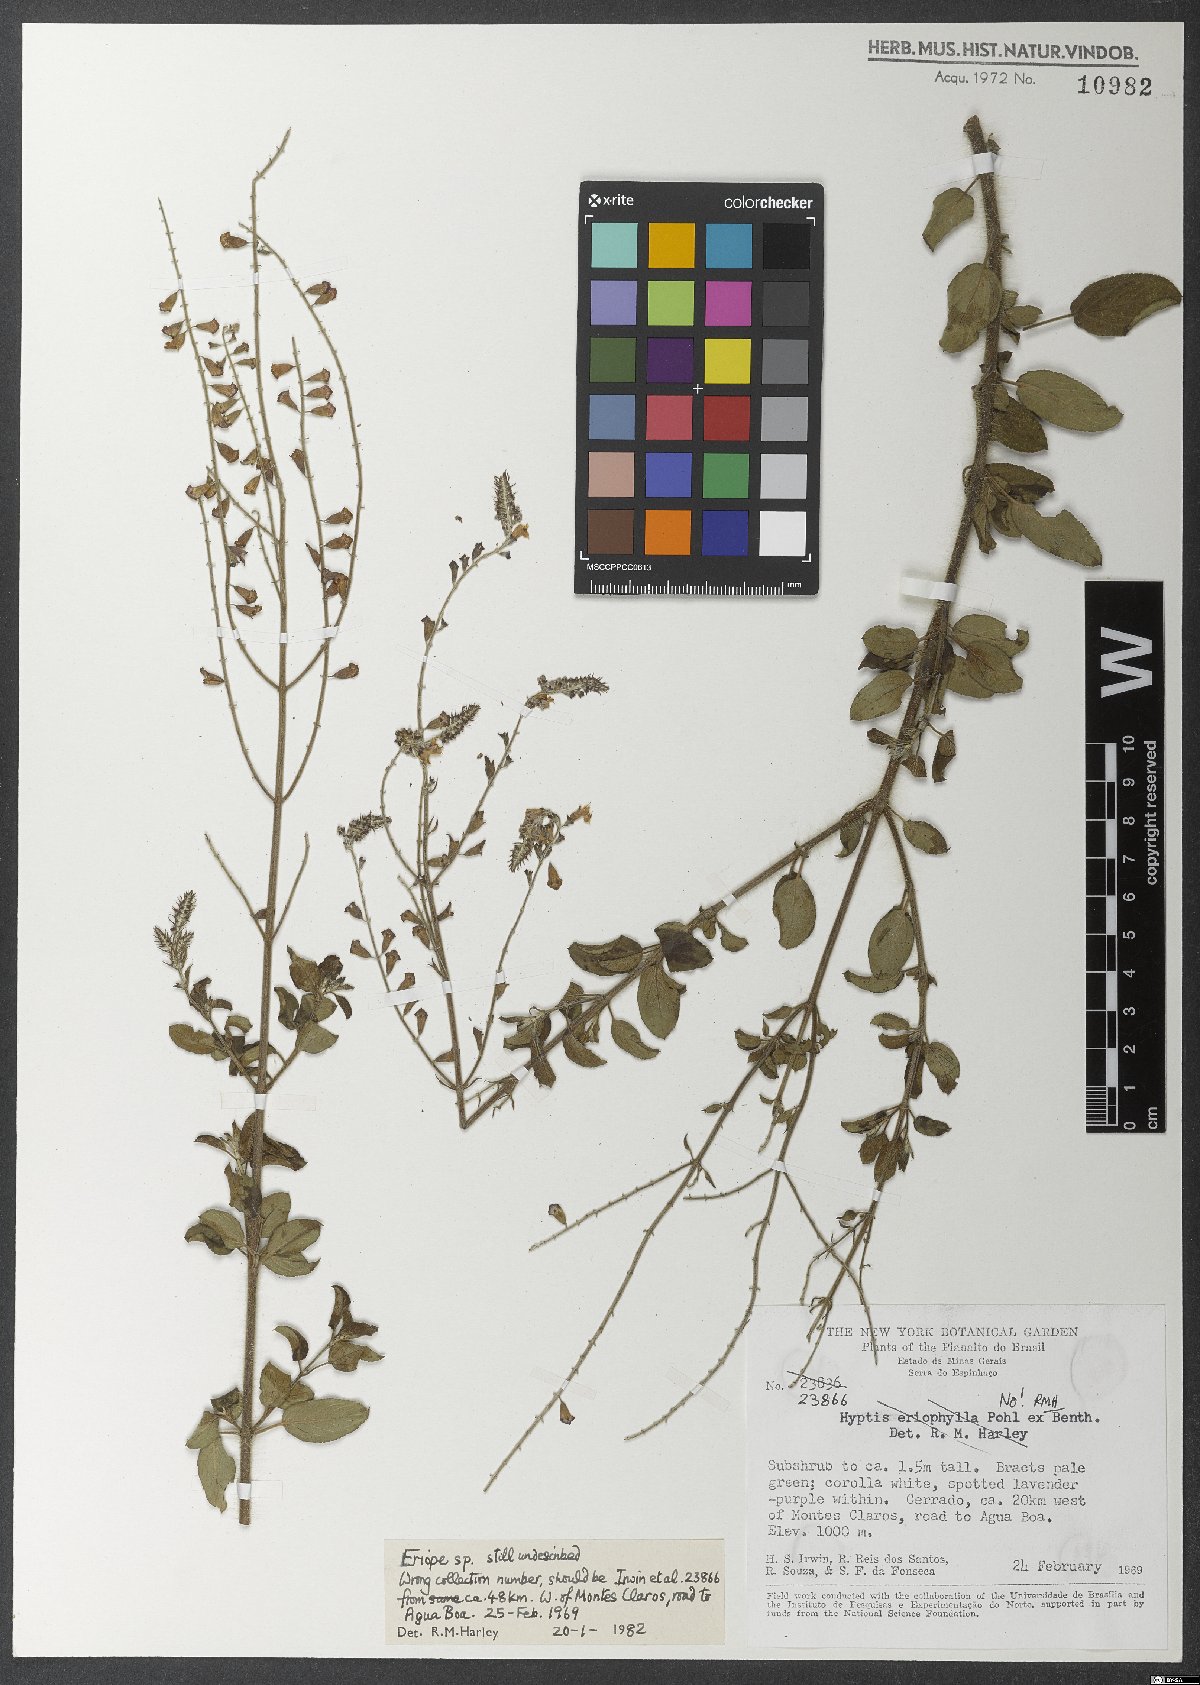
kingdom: Plantae
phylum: Tracheophyta
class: Magnoliopsida
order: Lamiales
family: Lamiaceae
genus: Eriope
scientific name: Eriope
